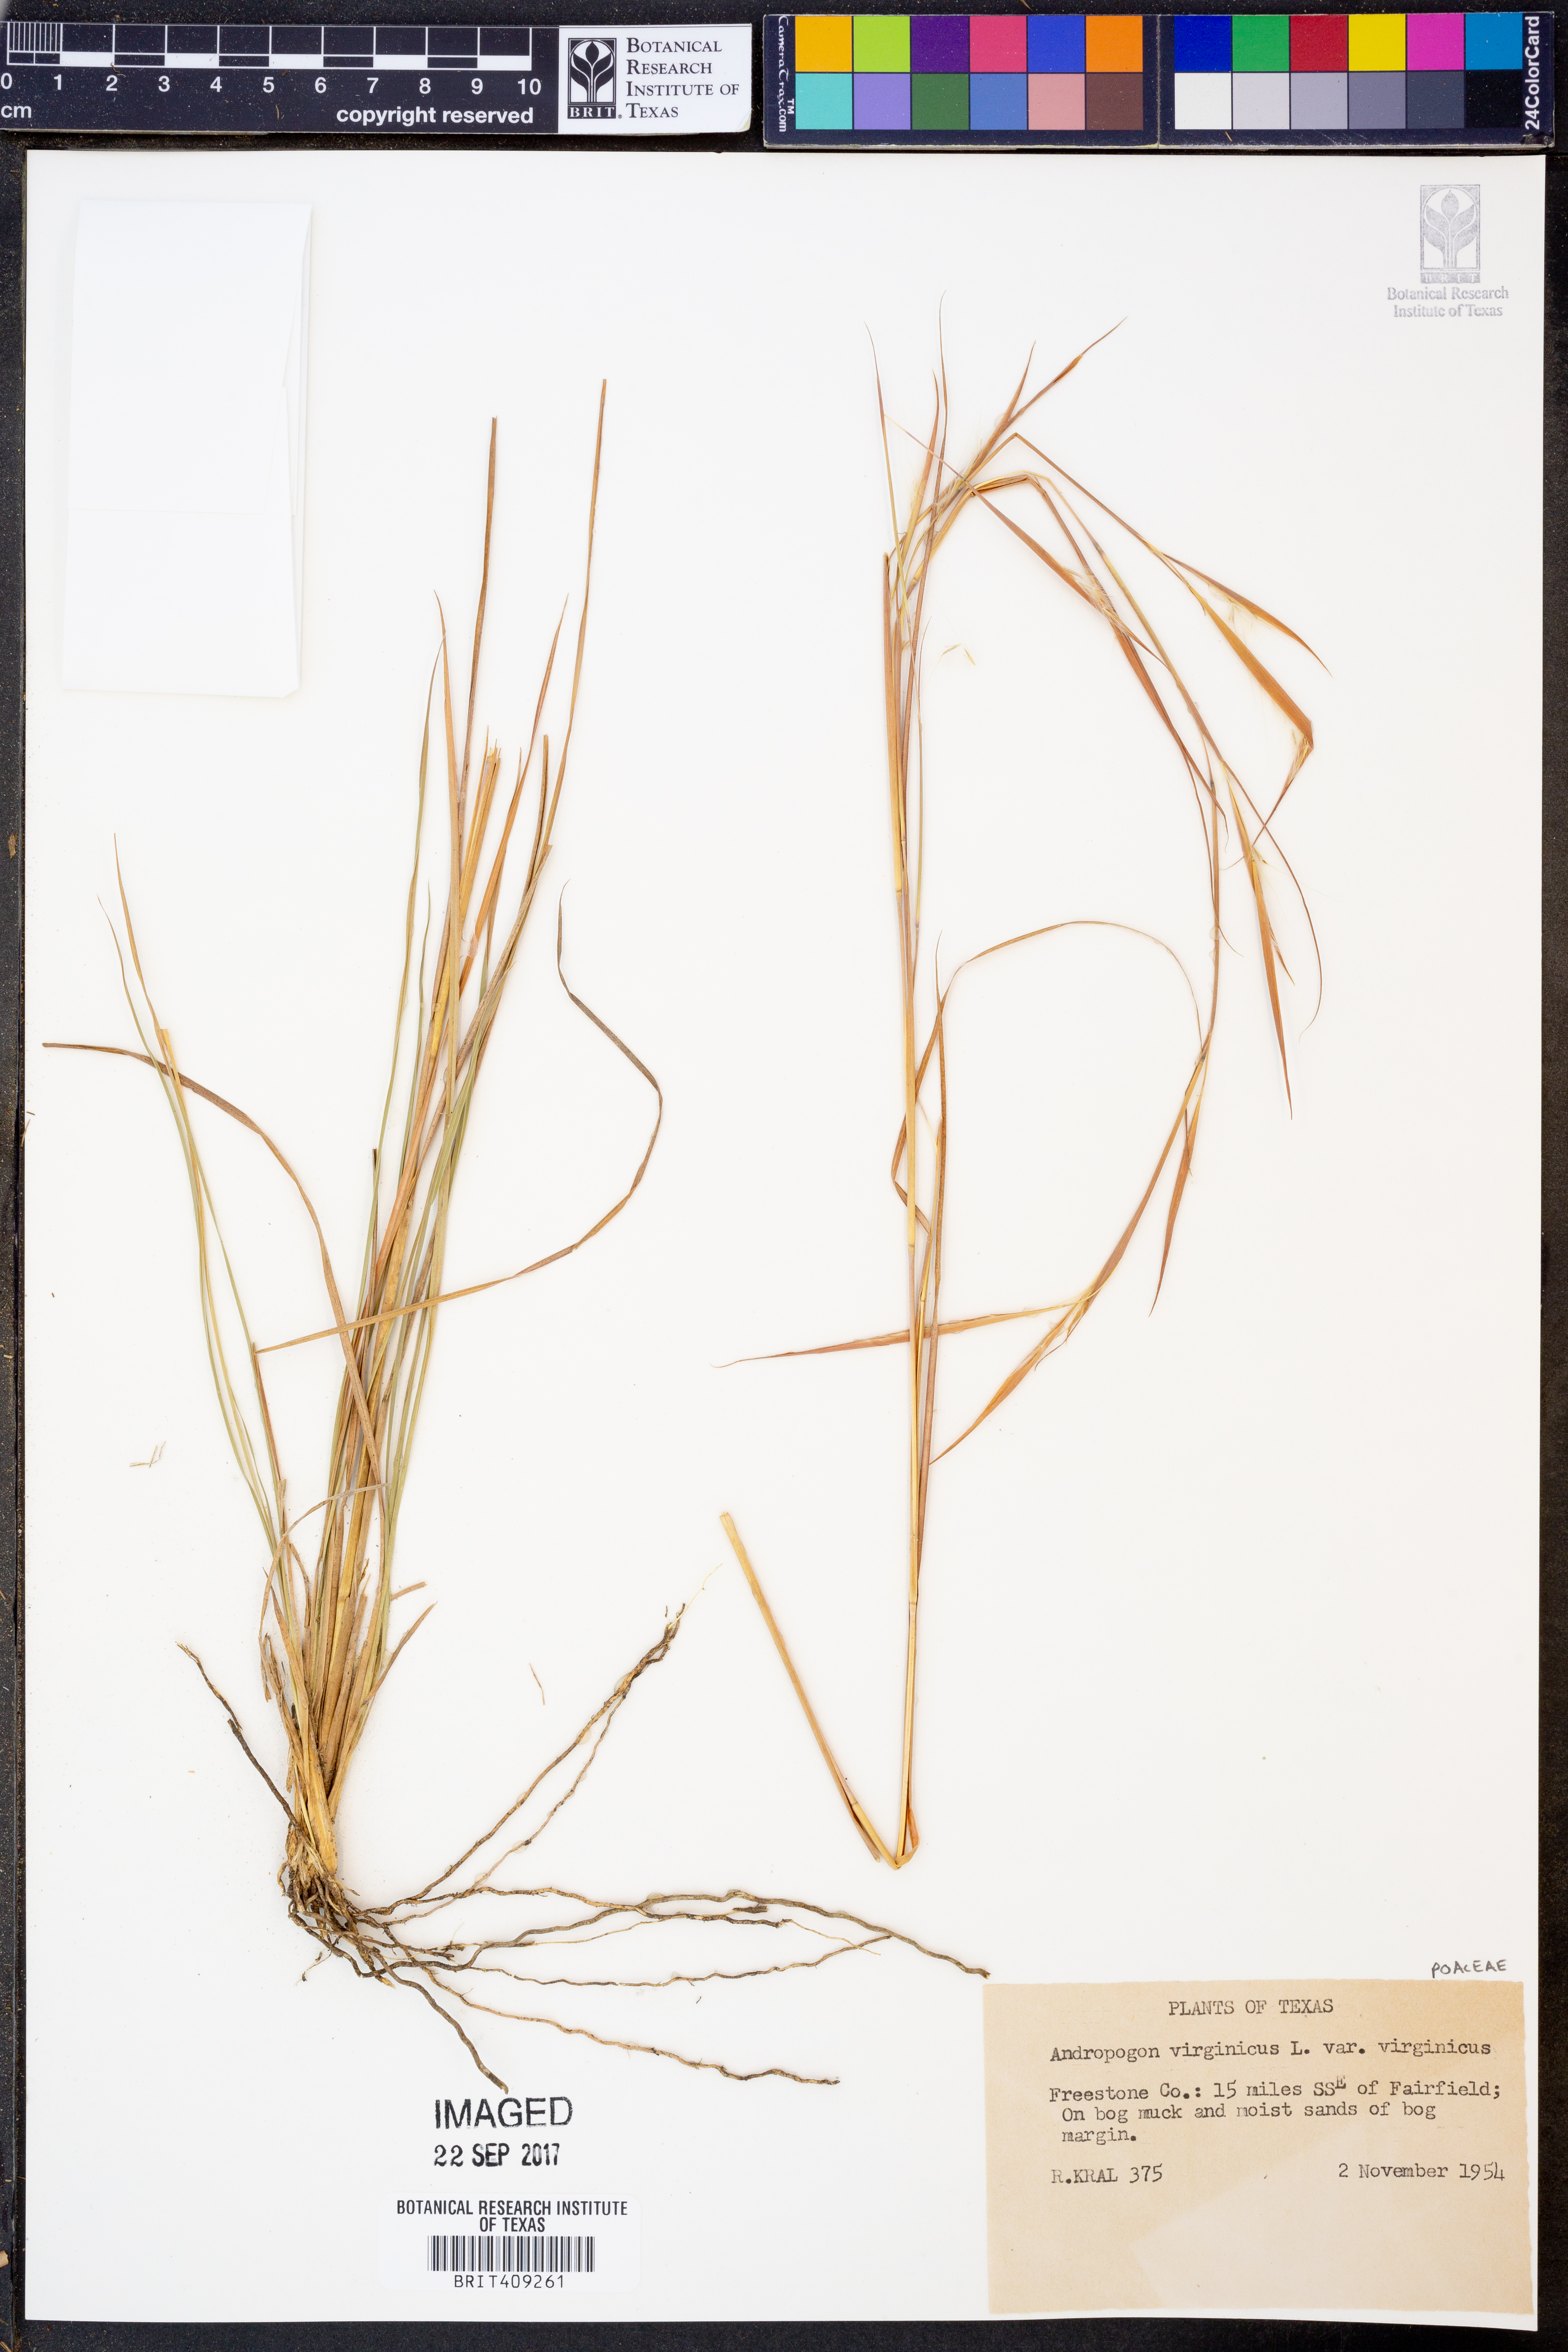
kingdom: Plantae
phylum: Tracheophyta
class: Liliopsida
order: Poales
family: Poaceae
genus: Andropogon
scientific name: Andropogon virginicus
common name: Broomsedge bluestem
